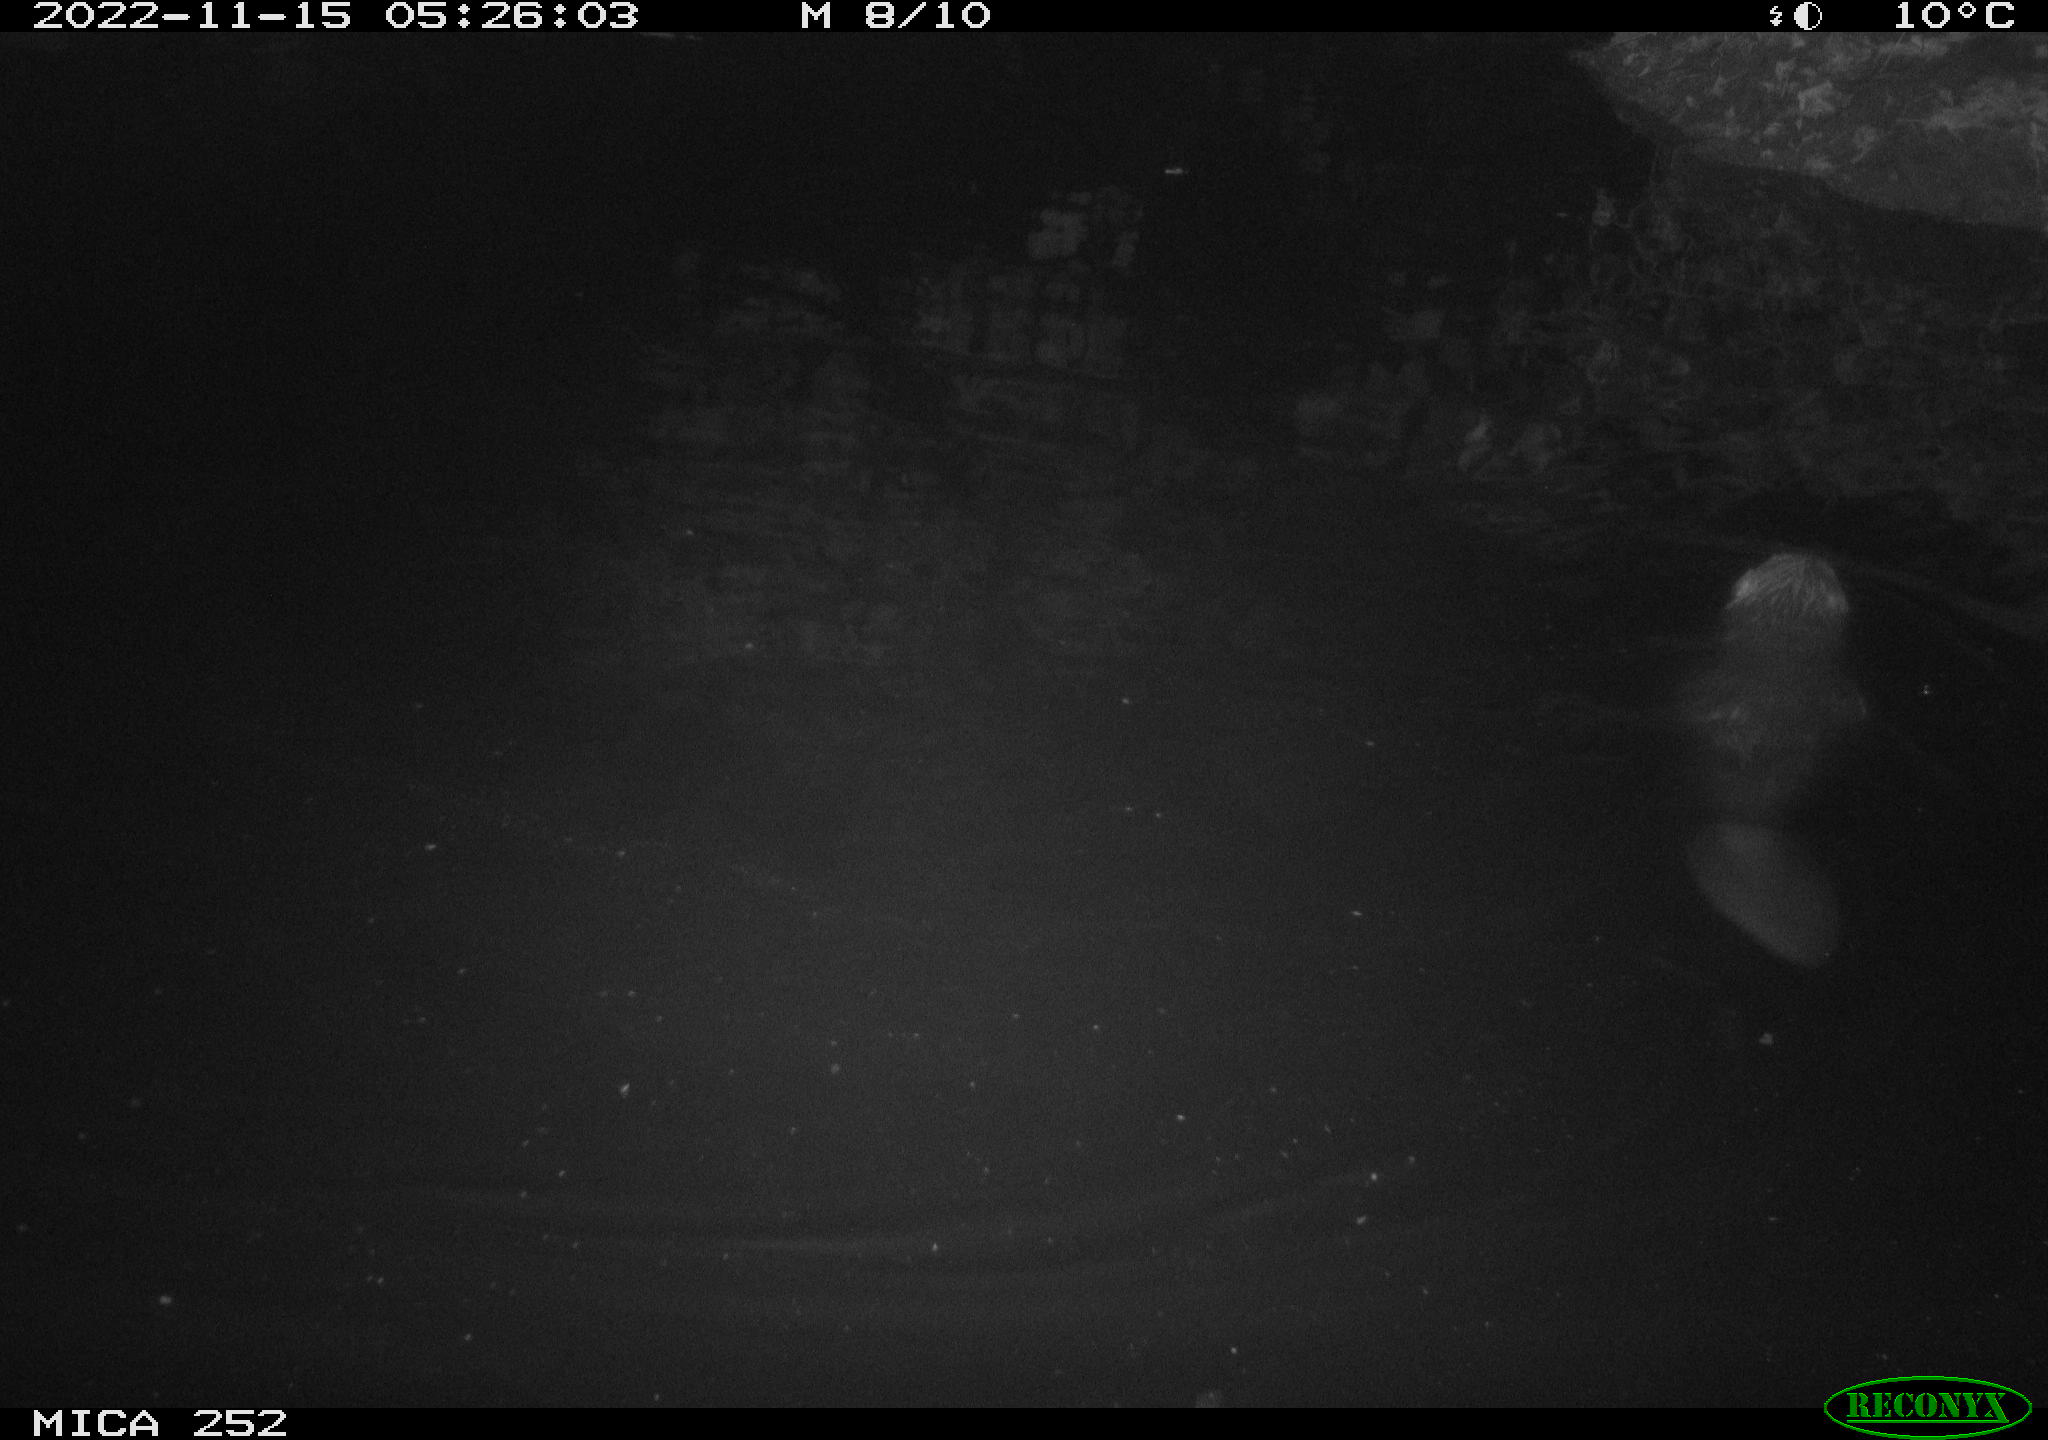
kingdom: Animalia
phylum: Chordata
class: Mammalia
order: Rodentia
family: Castoridae
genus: Castor
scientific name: Castor fiber
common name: Eurasian beaver
